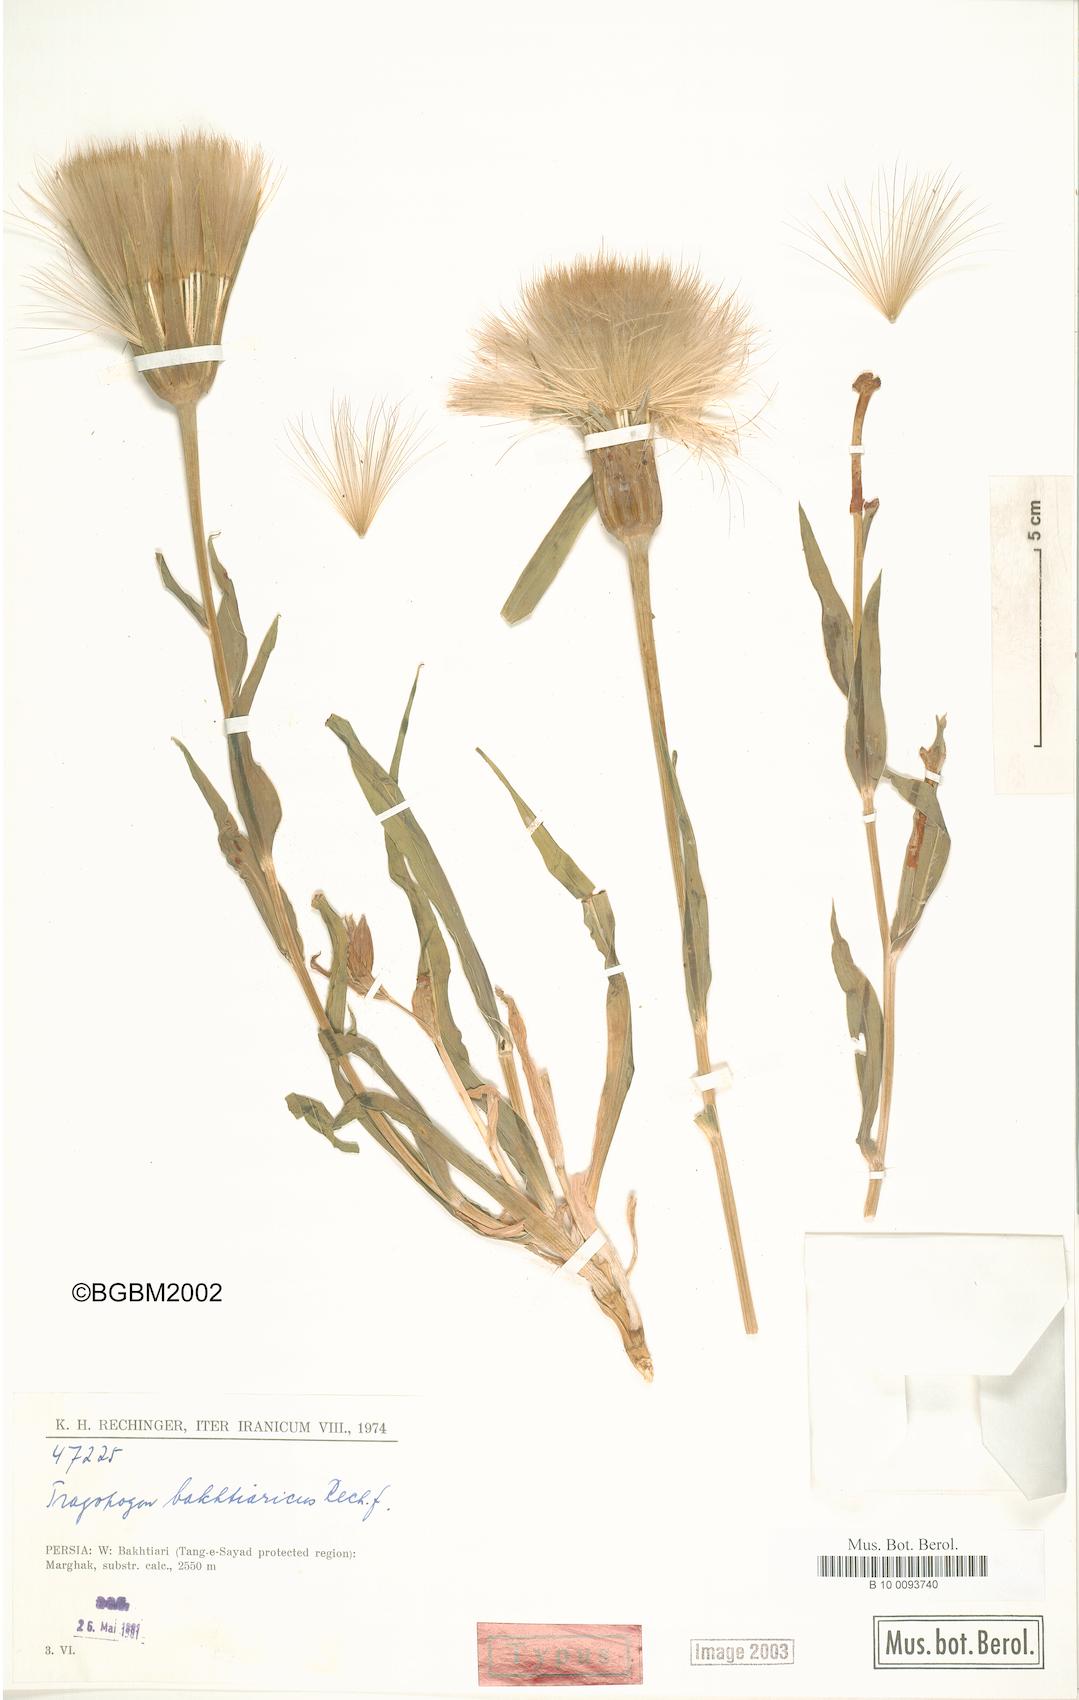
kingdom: Plantae
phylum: Tracheophyta
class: Magnoliopsida
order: Asterales
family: Asteraceae
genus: Tragopogon
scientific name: Tragopogon bakhtiaricus
